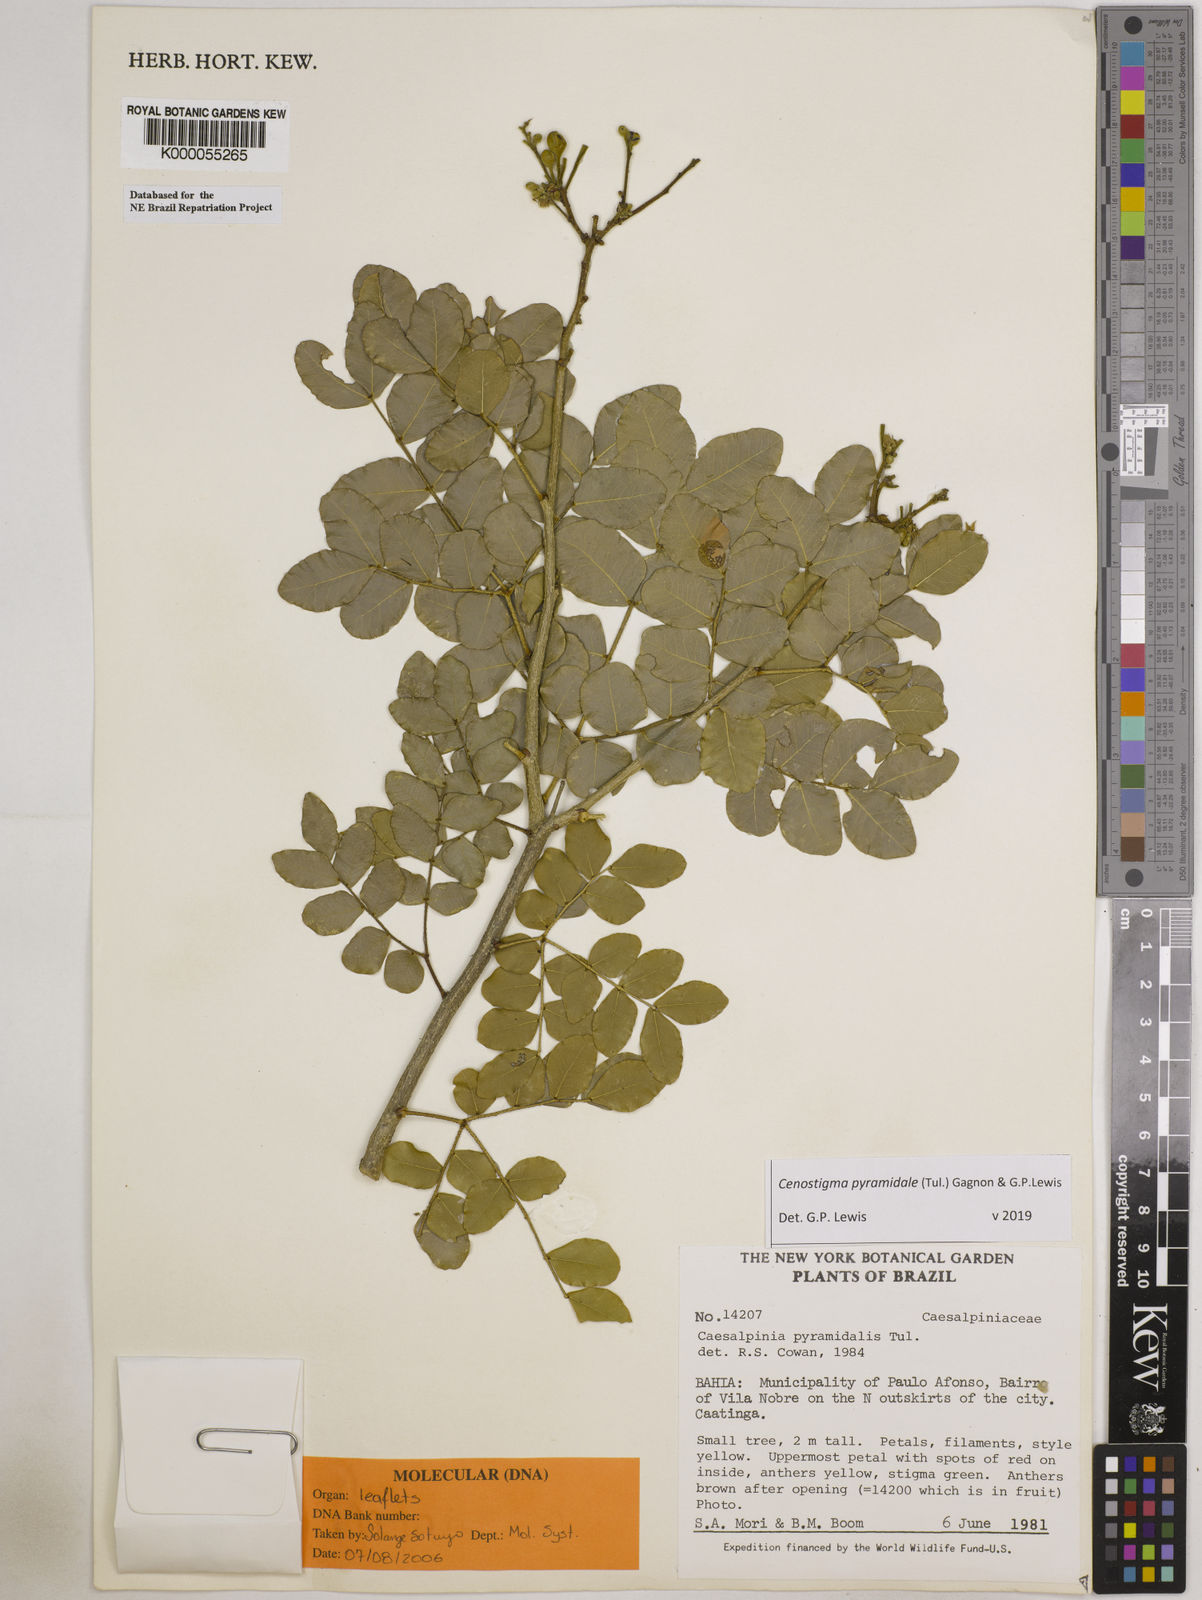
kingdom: Plantae
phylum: Tracheophyta
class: Magnoliopsida
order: Fabales
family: Fabaceae
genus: Cenostigma
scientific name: Cenostigma pyramidale
